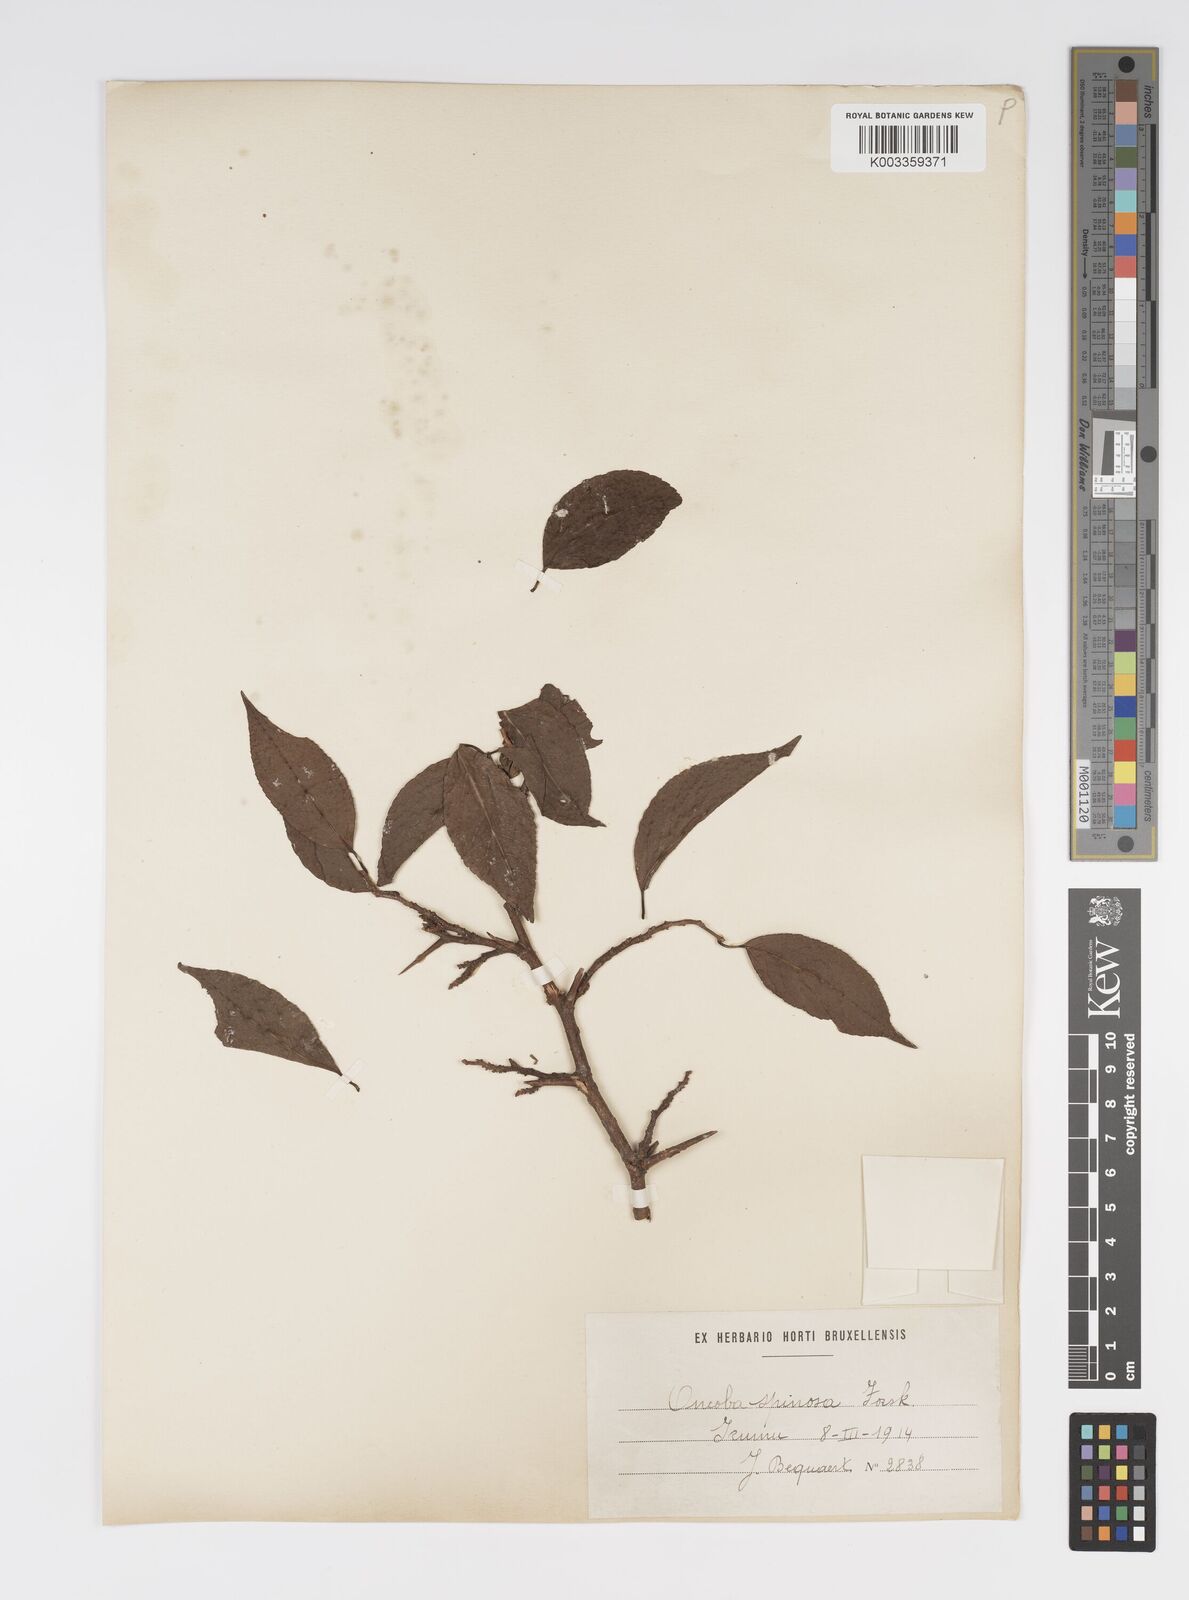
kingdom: Plantae
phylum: Tracheophyta
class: Magnoliopsida
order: Malpighiales
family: Salicaceae
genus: Oncoba
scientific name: Oncoba spinosa
